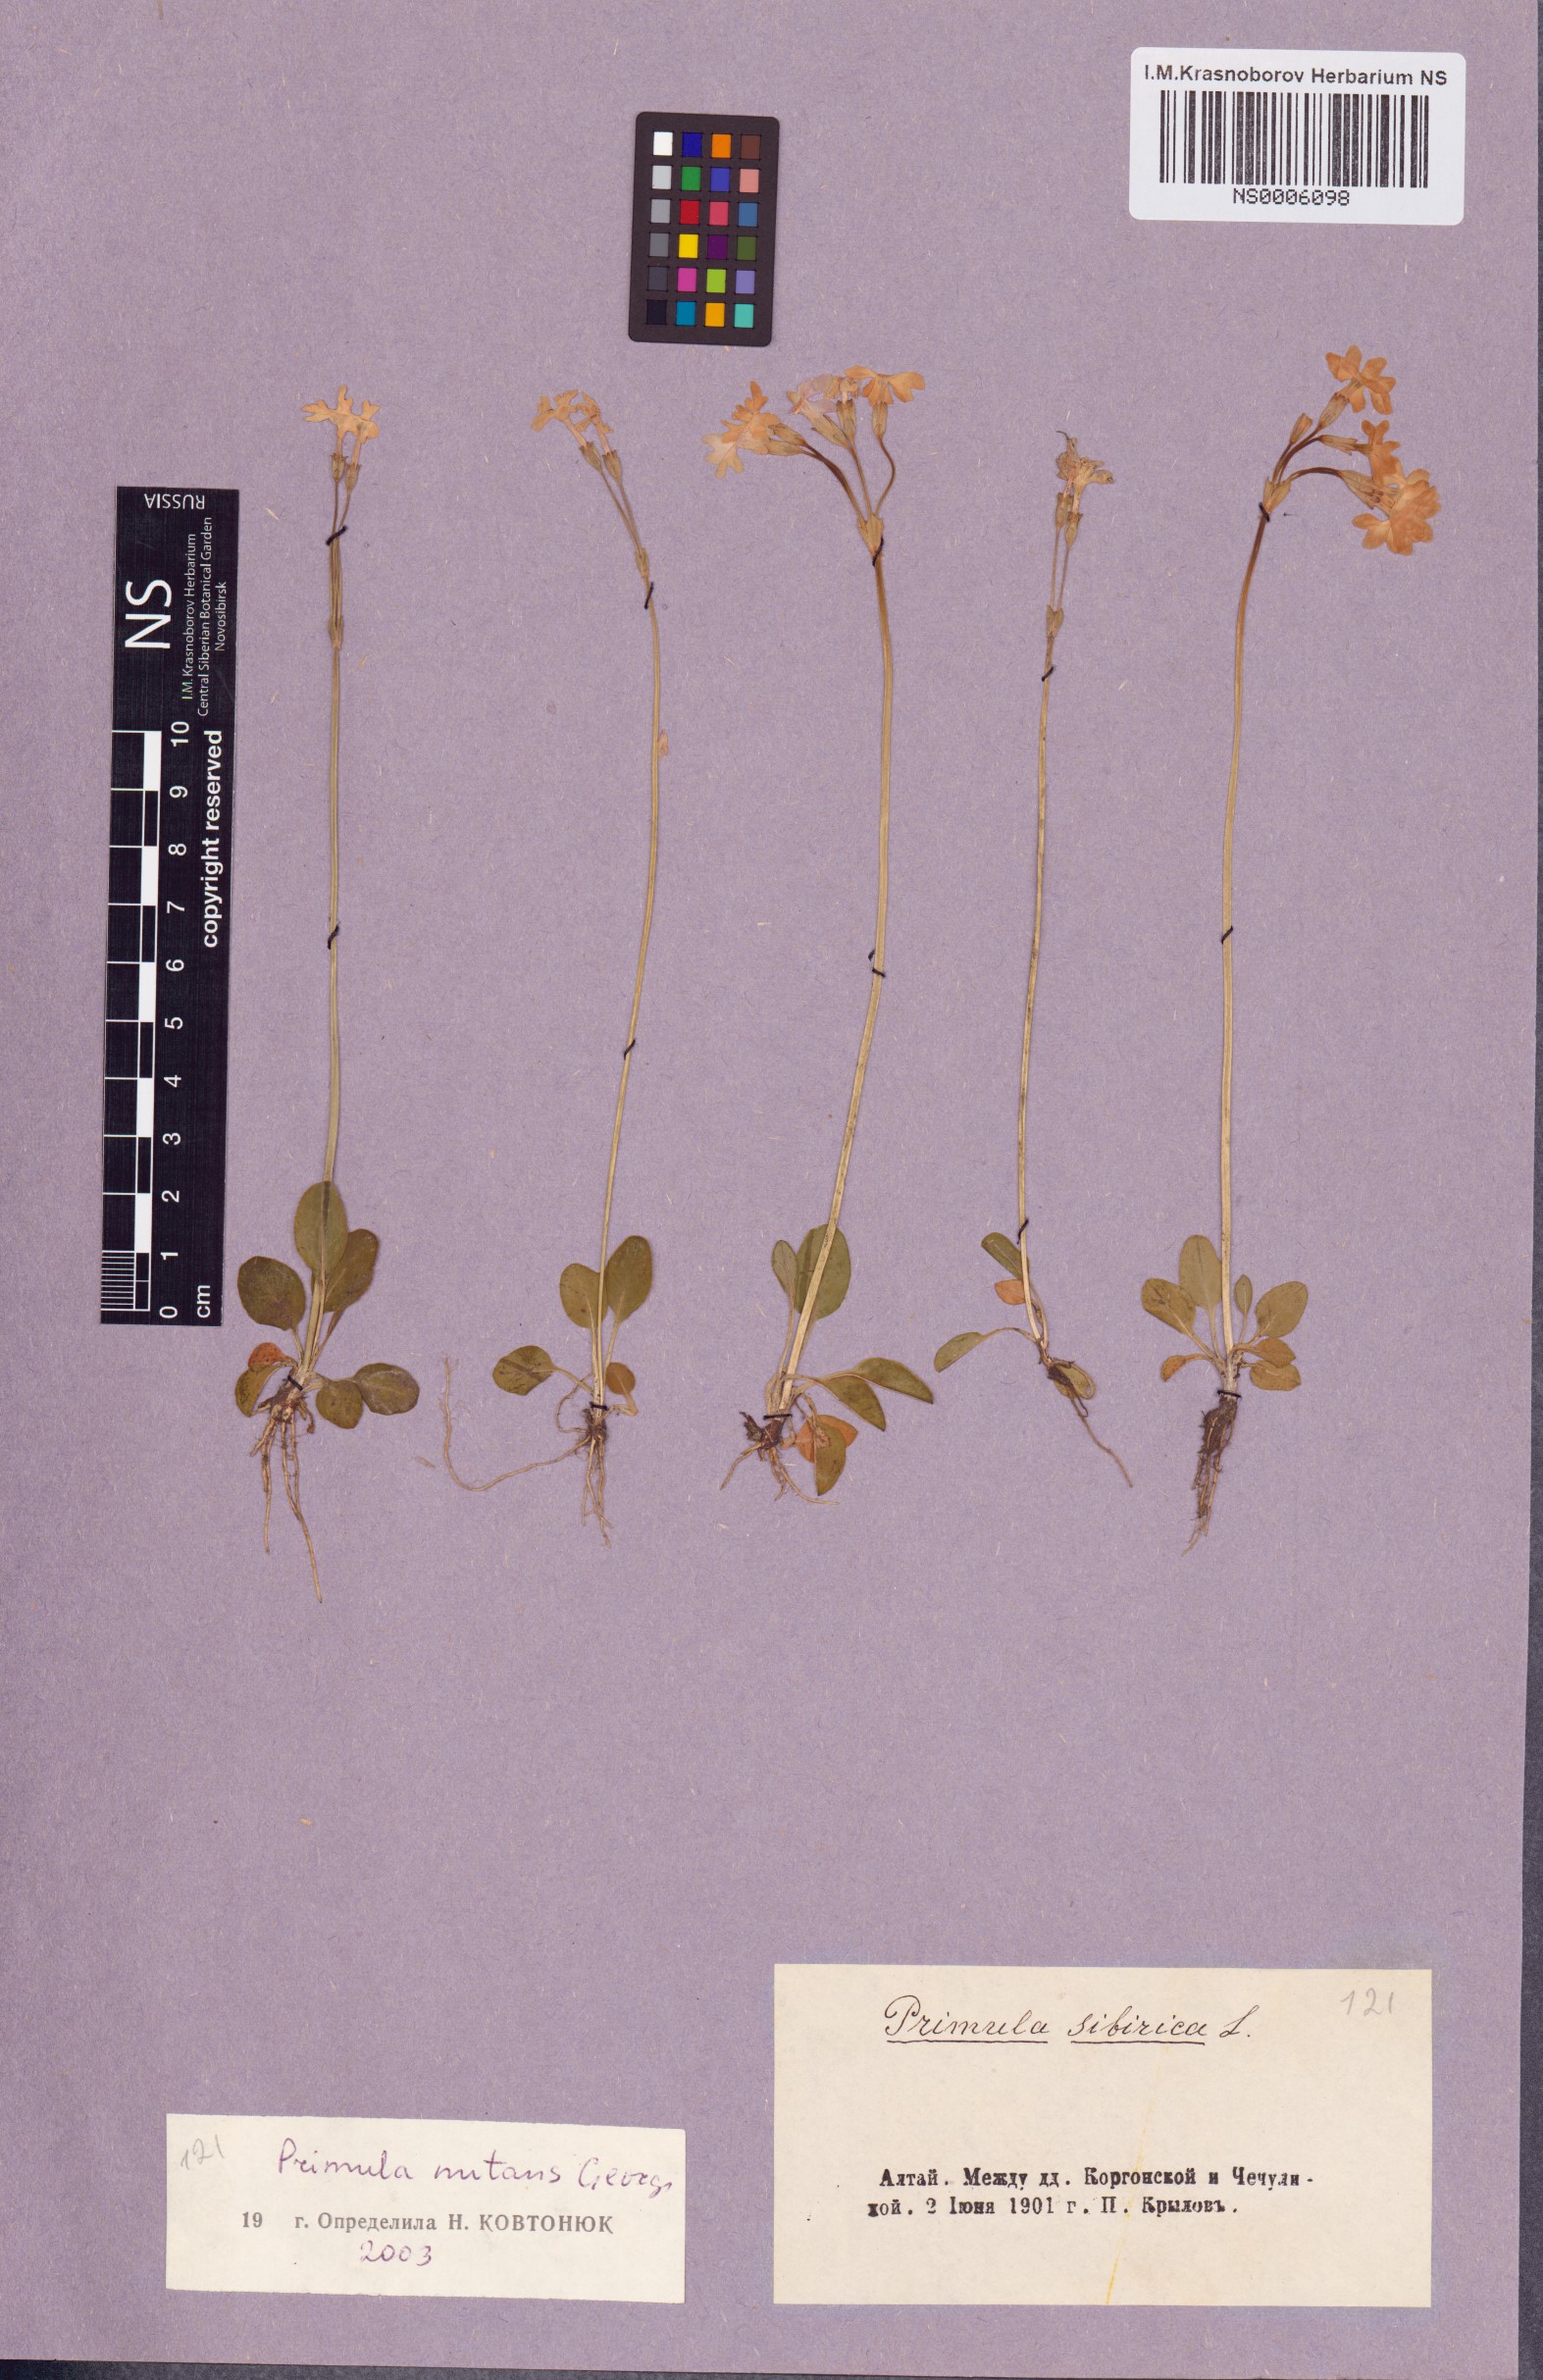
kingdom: Plantae
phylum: Tracheophyta
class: Magnoliopsida
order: Ericales
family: Primulaceae
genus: Primula
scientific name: Primula nutans
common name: Siberian primrose
